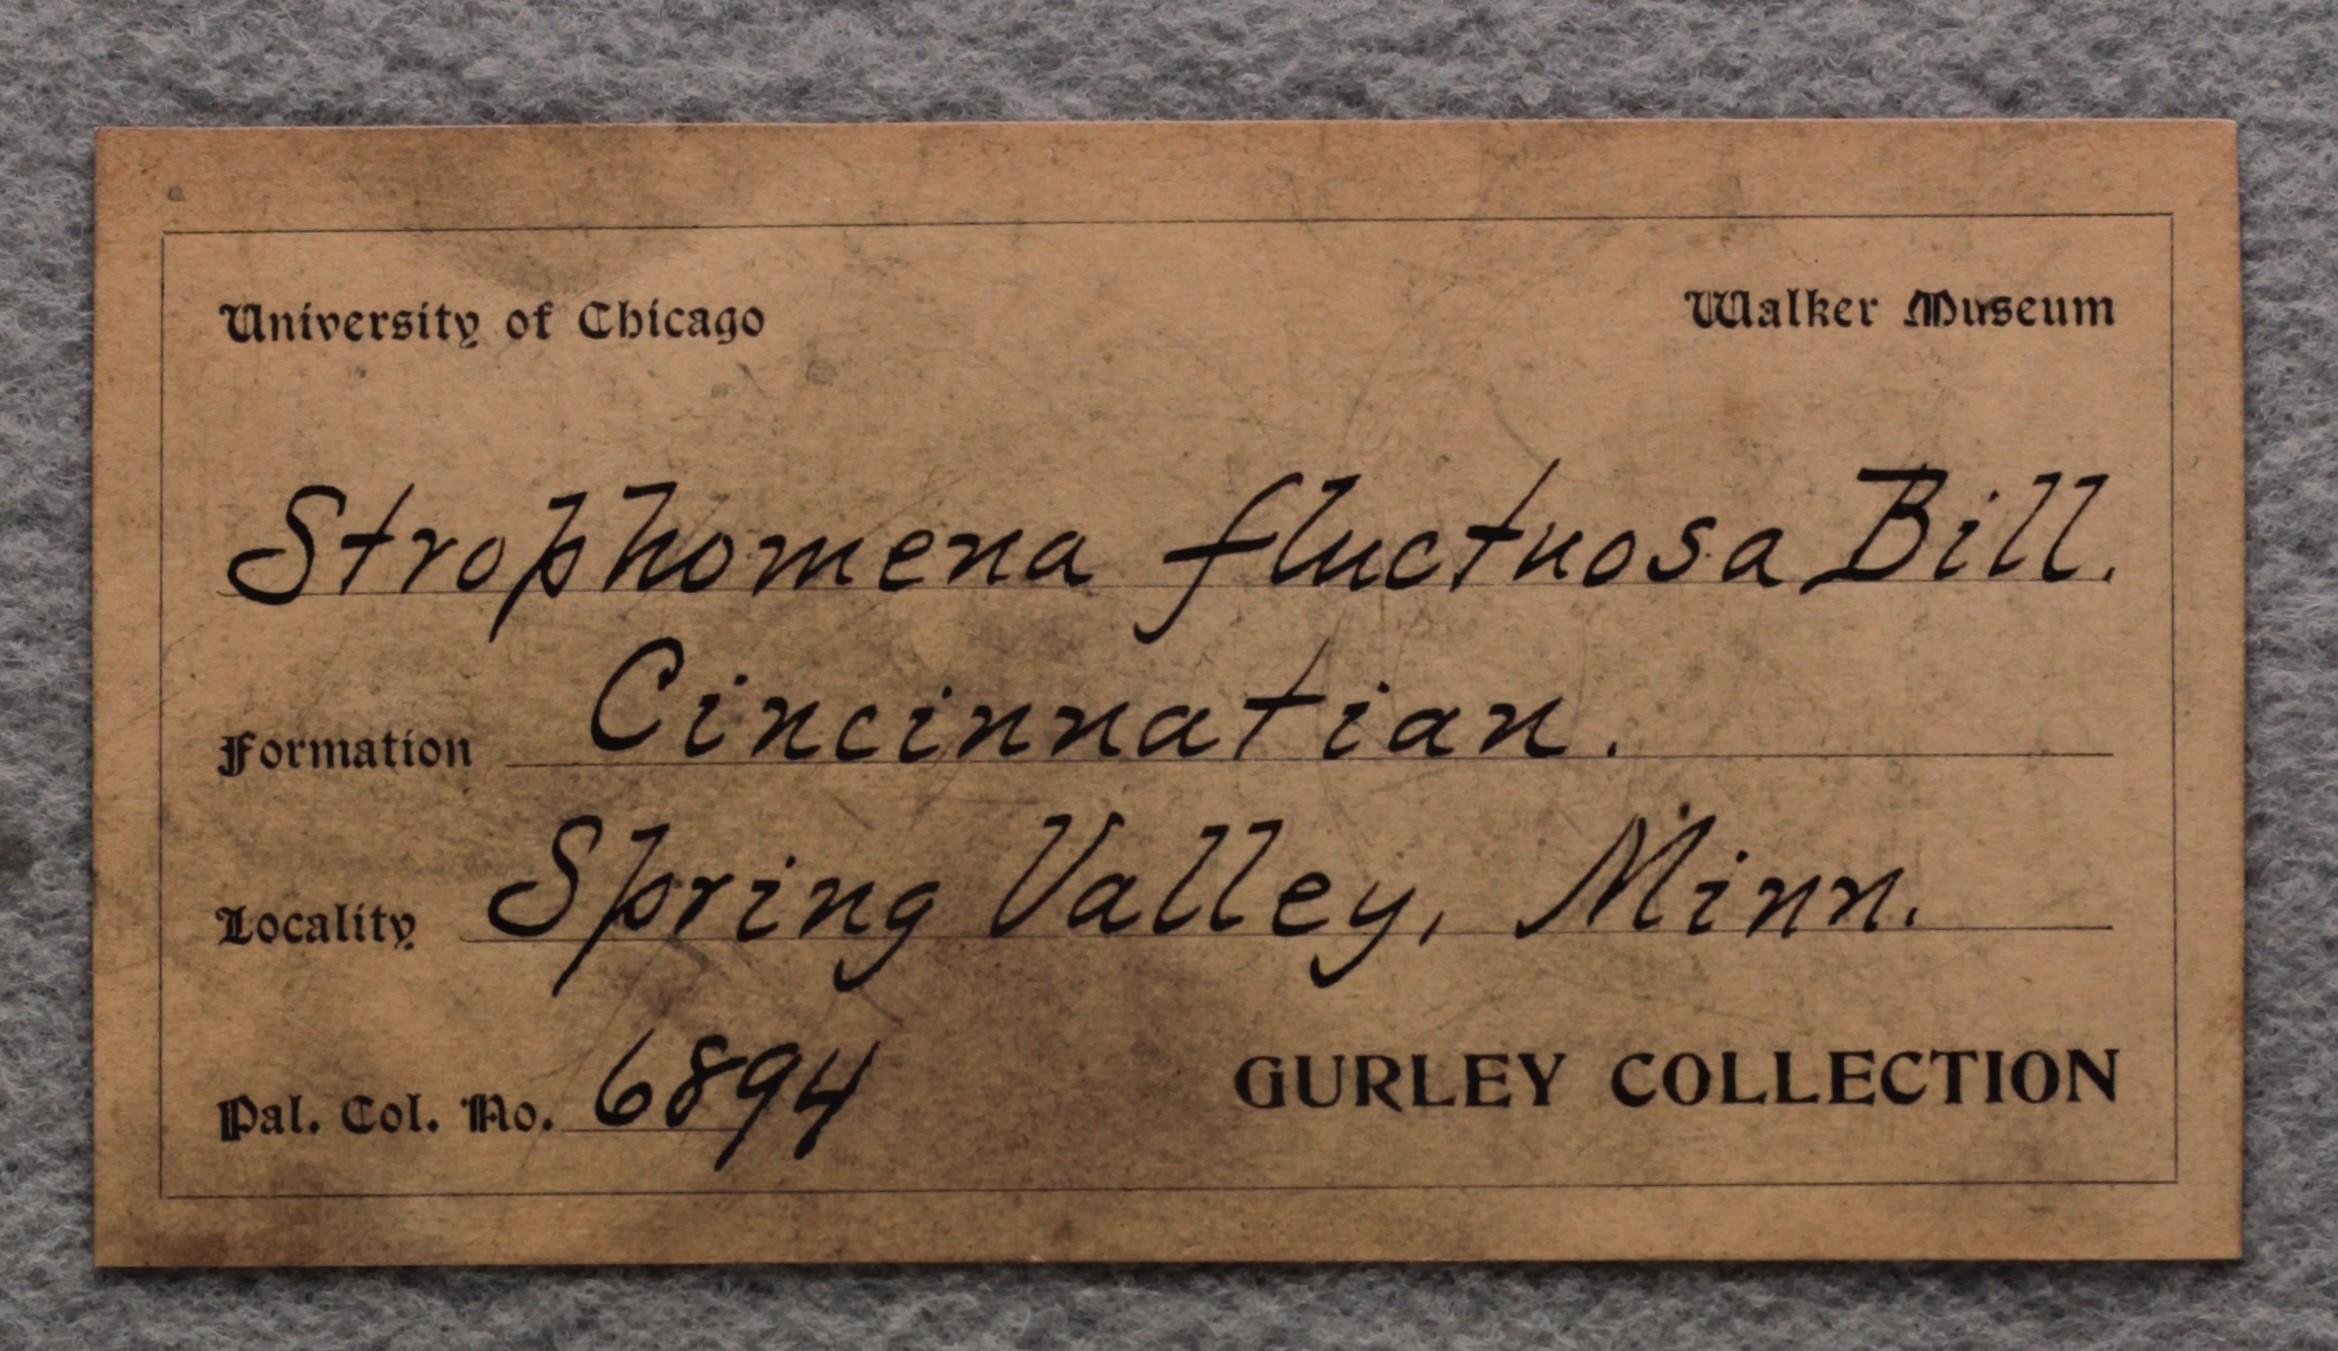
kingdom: Animalia
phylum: Brachiopoda
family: Strophomenidae
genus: Nasutimena
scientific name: Nasutimena Strophomena fluctuosa
